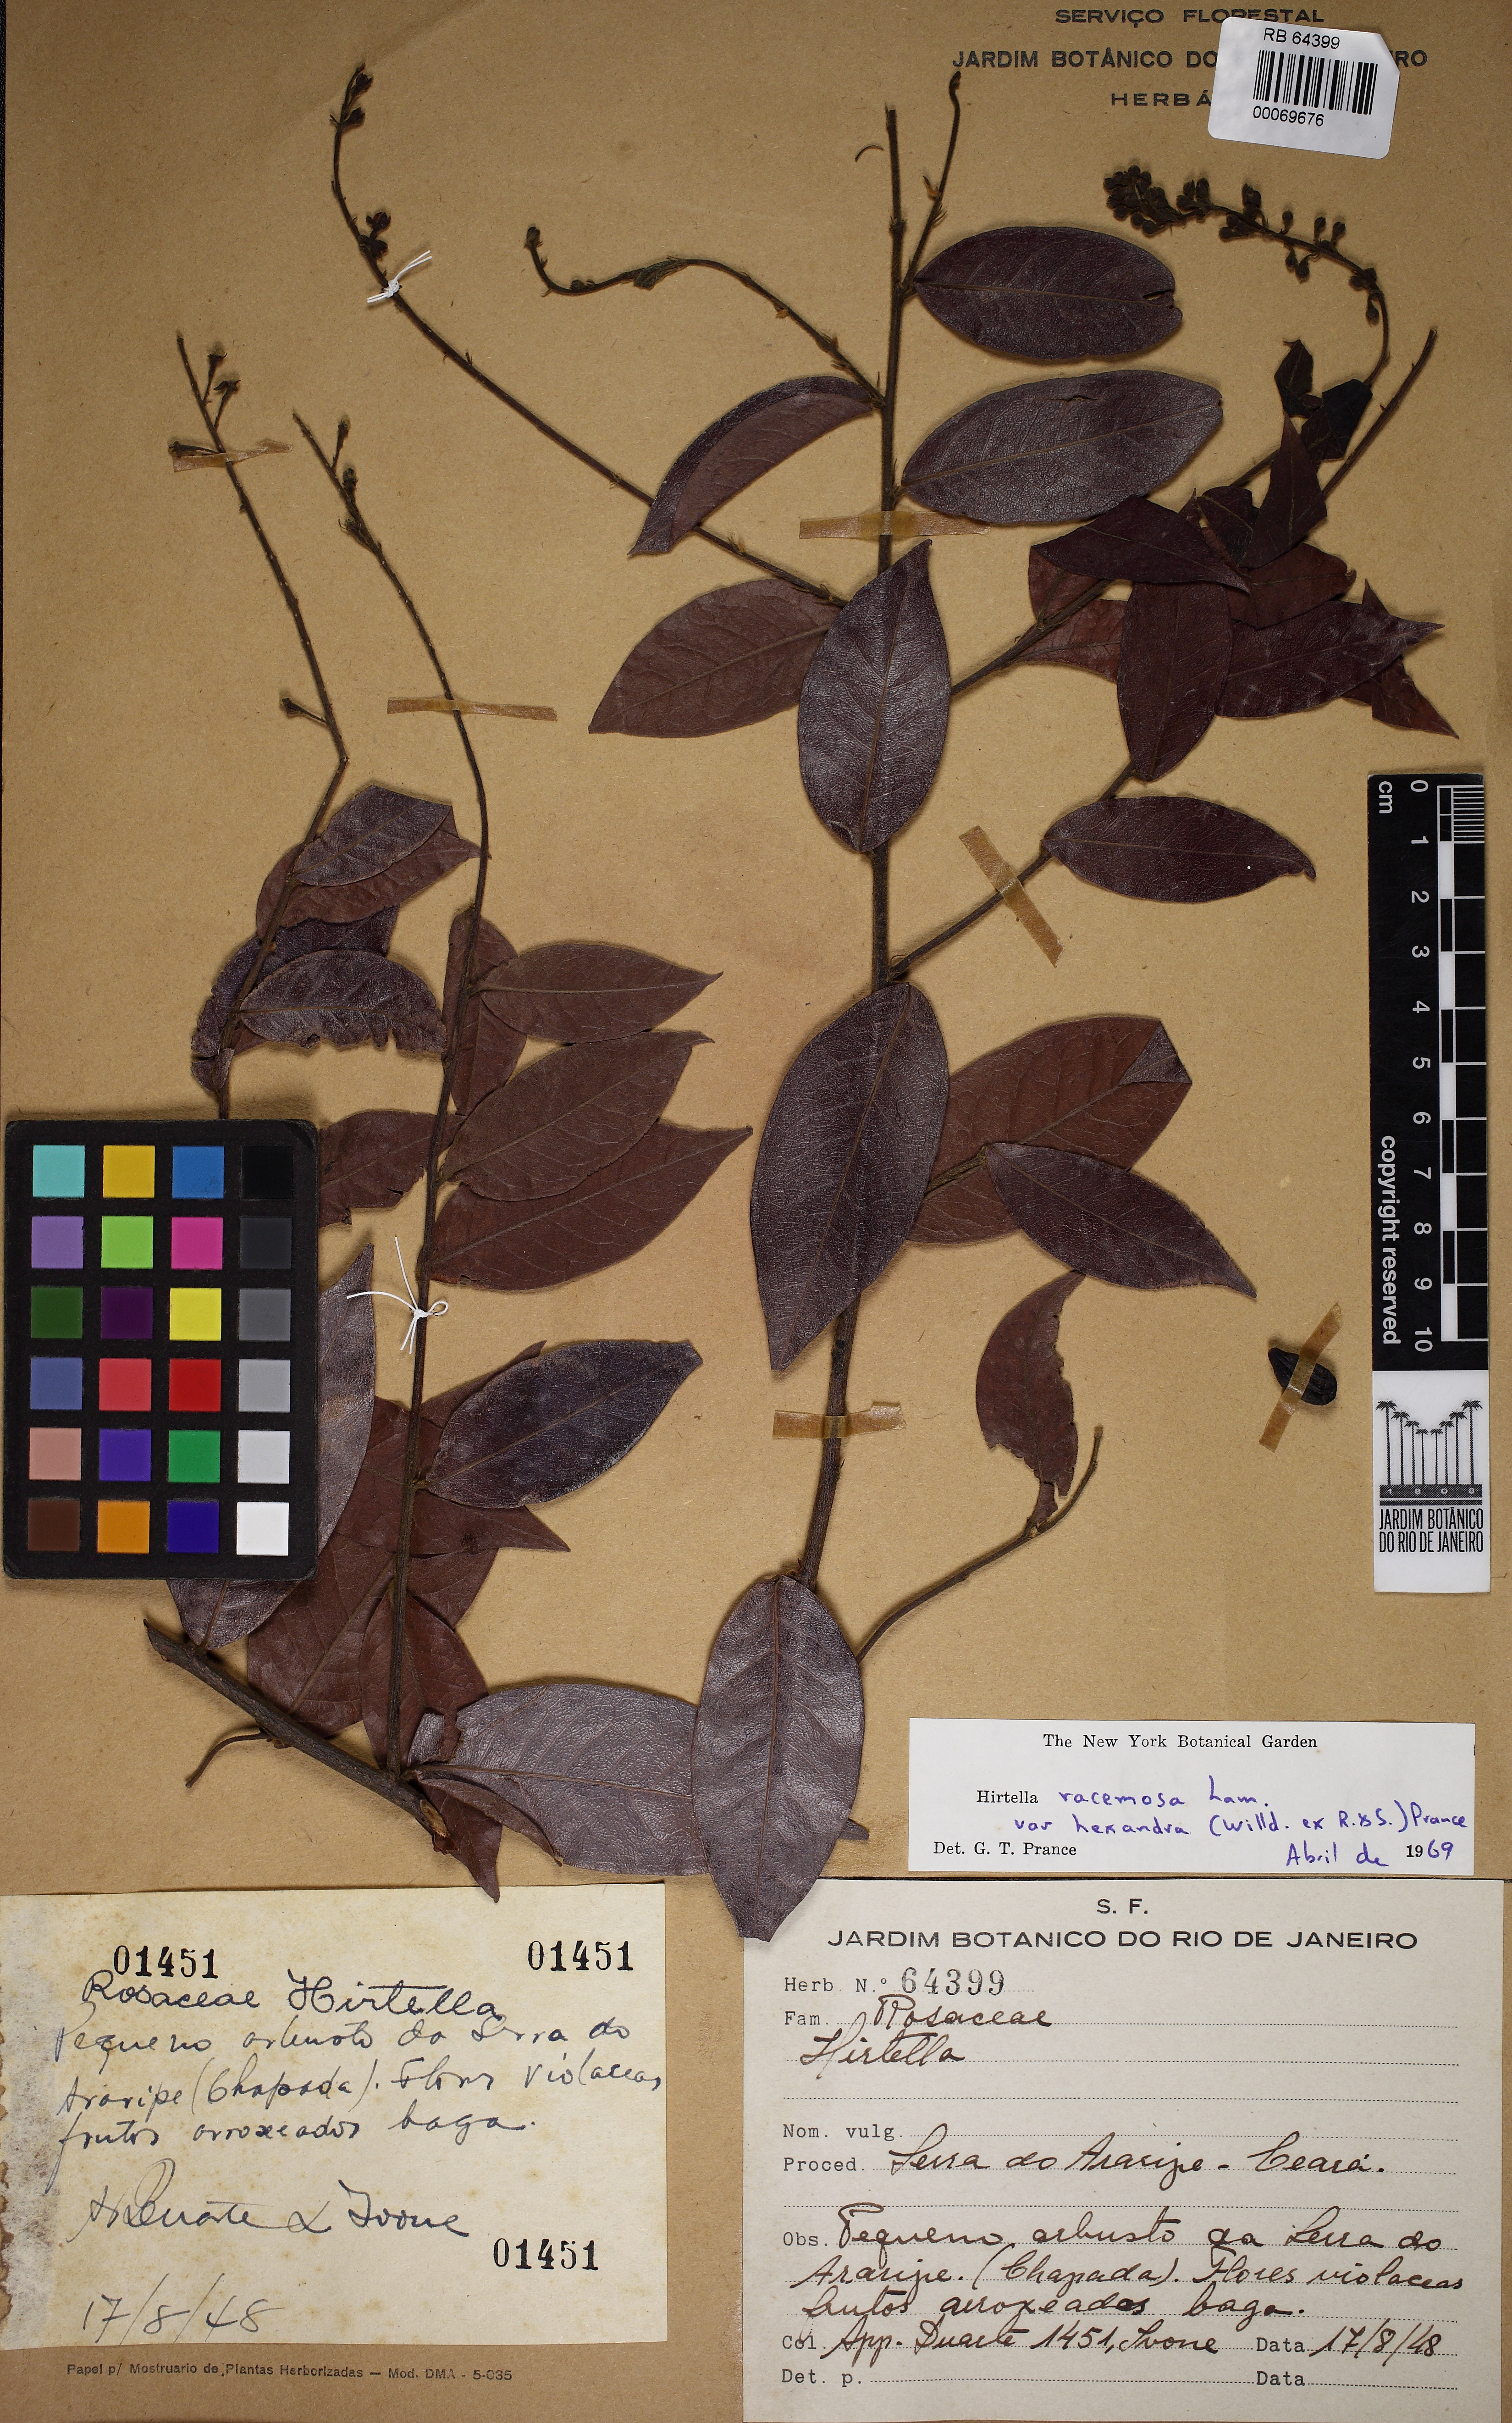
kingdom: Plantae
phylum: Tracheophyta
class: Magnoliopsida
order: Malpighiales
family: Chrysobalanaceae
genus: Hirtella
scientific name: Hirtella racemosa
